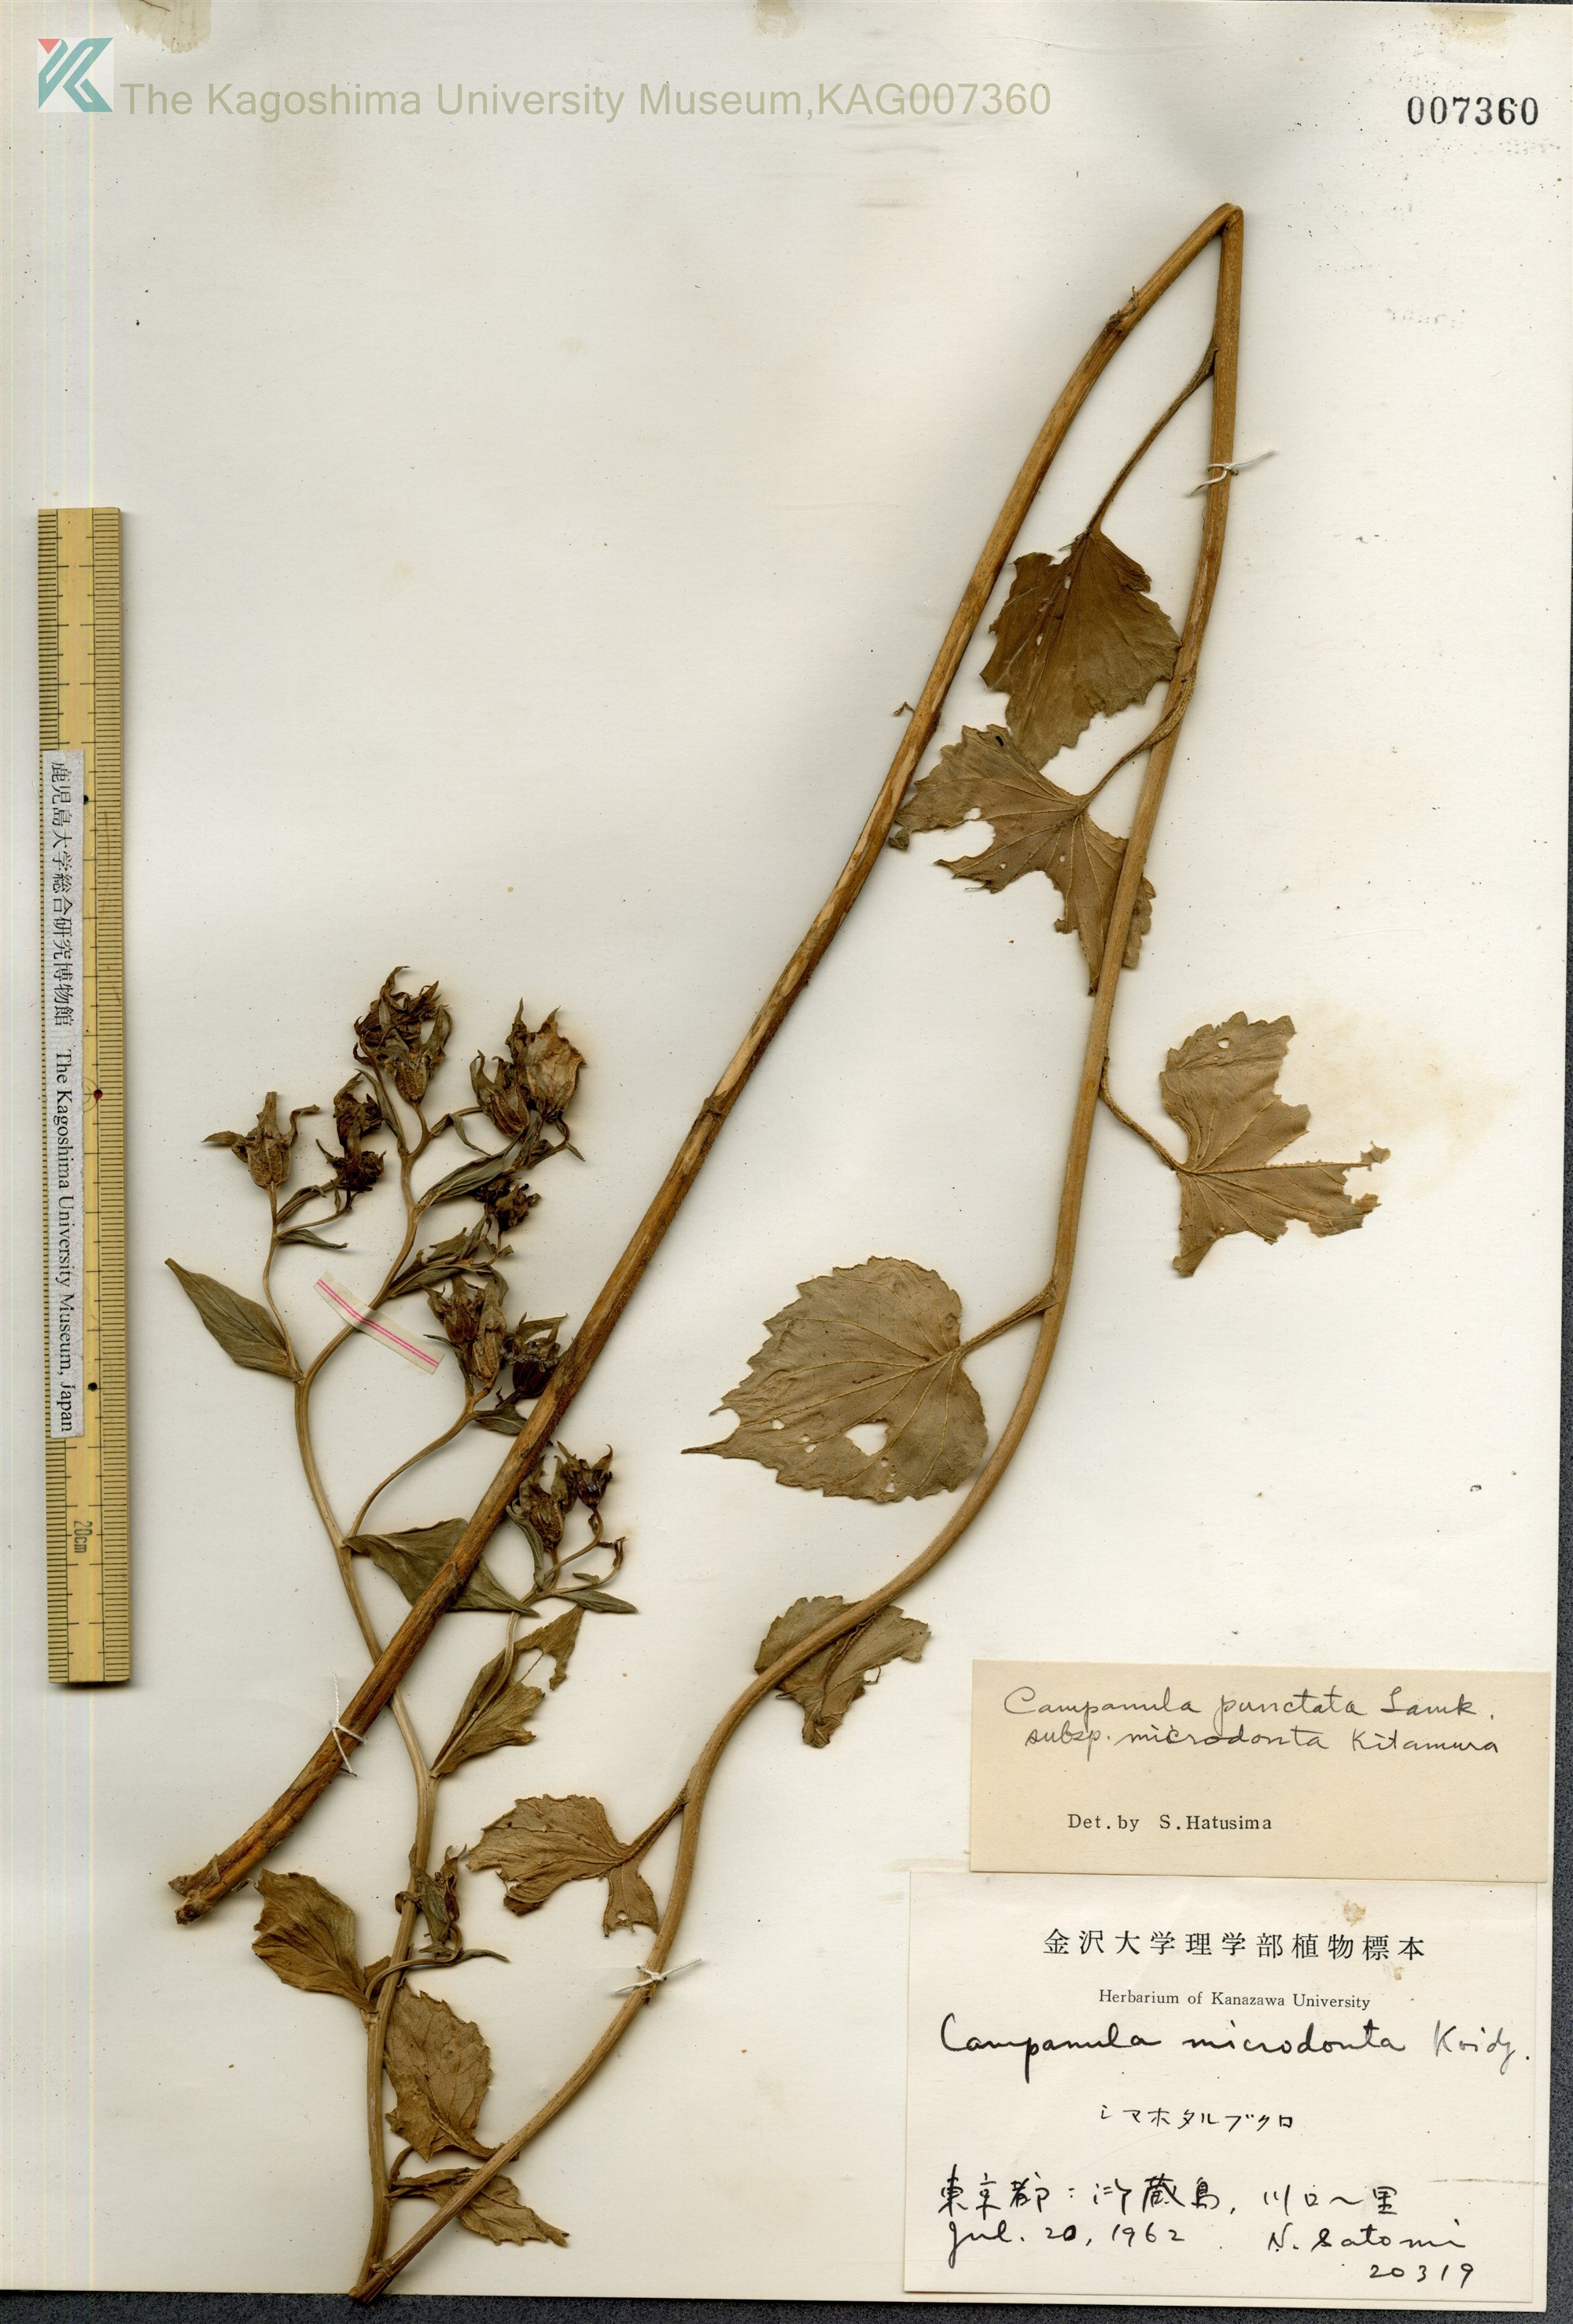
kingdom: Plantae
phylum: Tracheophyta
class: Magnoliopsida
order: Asterales
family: Campanulaceae
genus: Campanula
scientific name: Campanula microdonta
